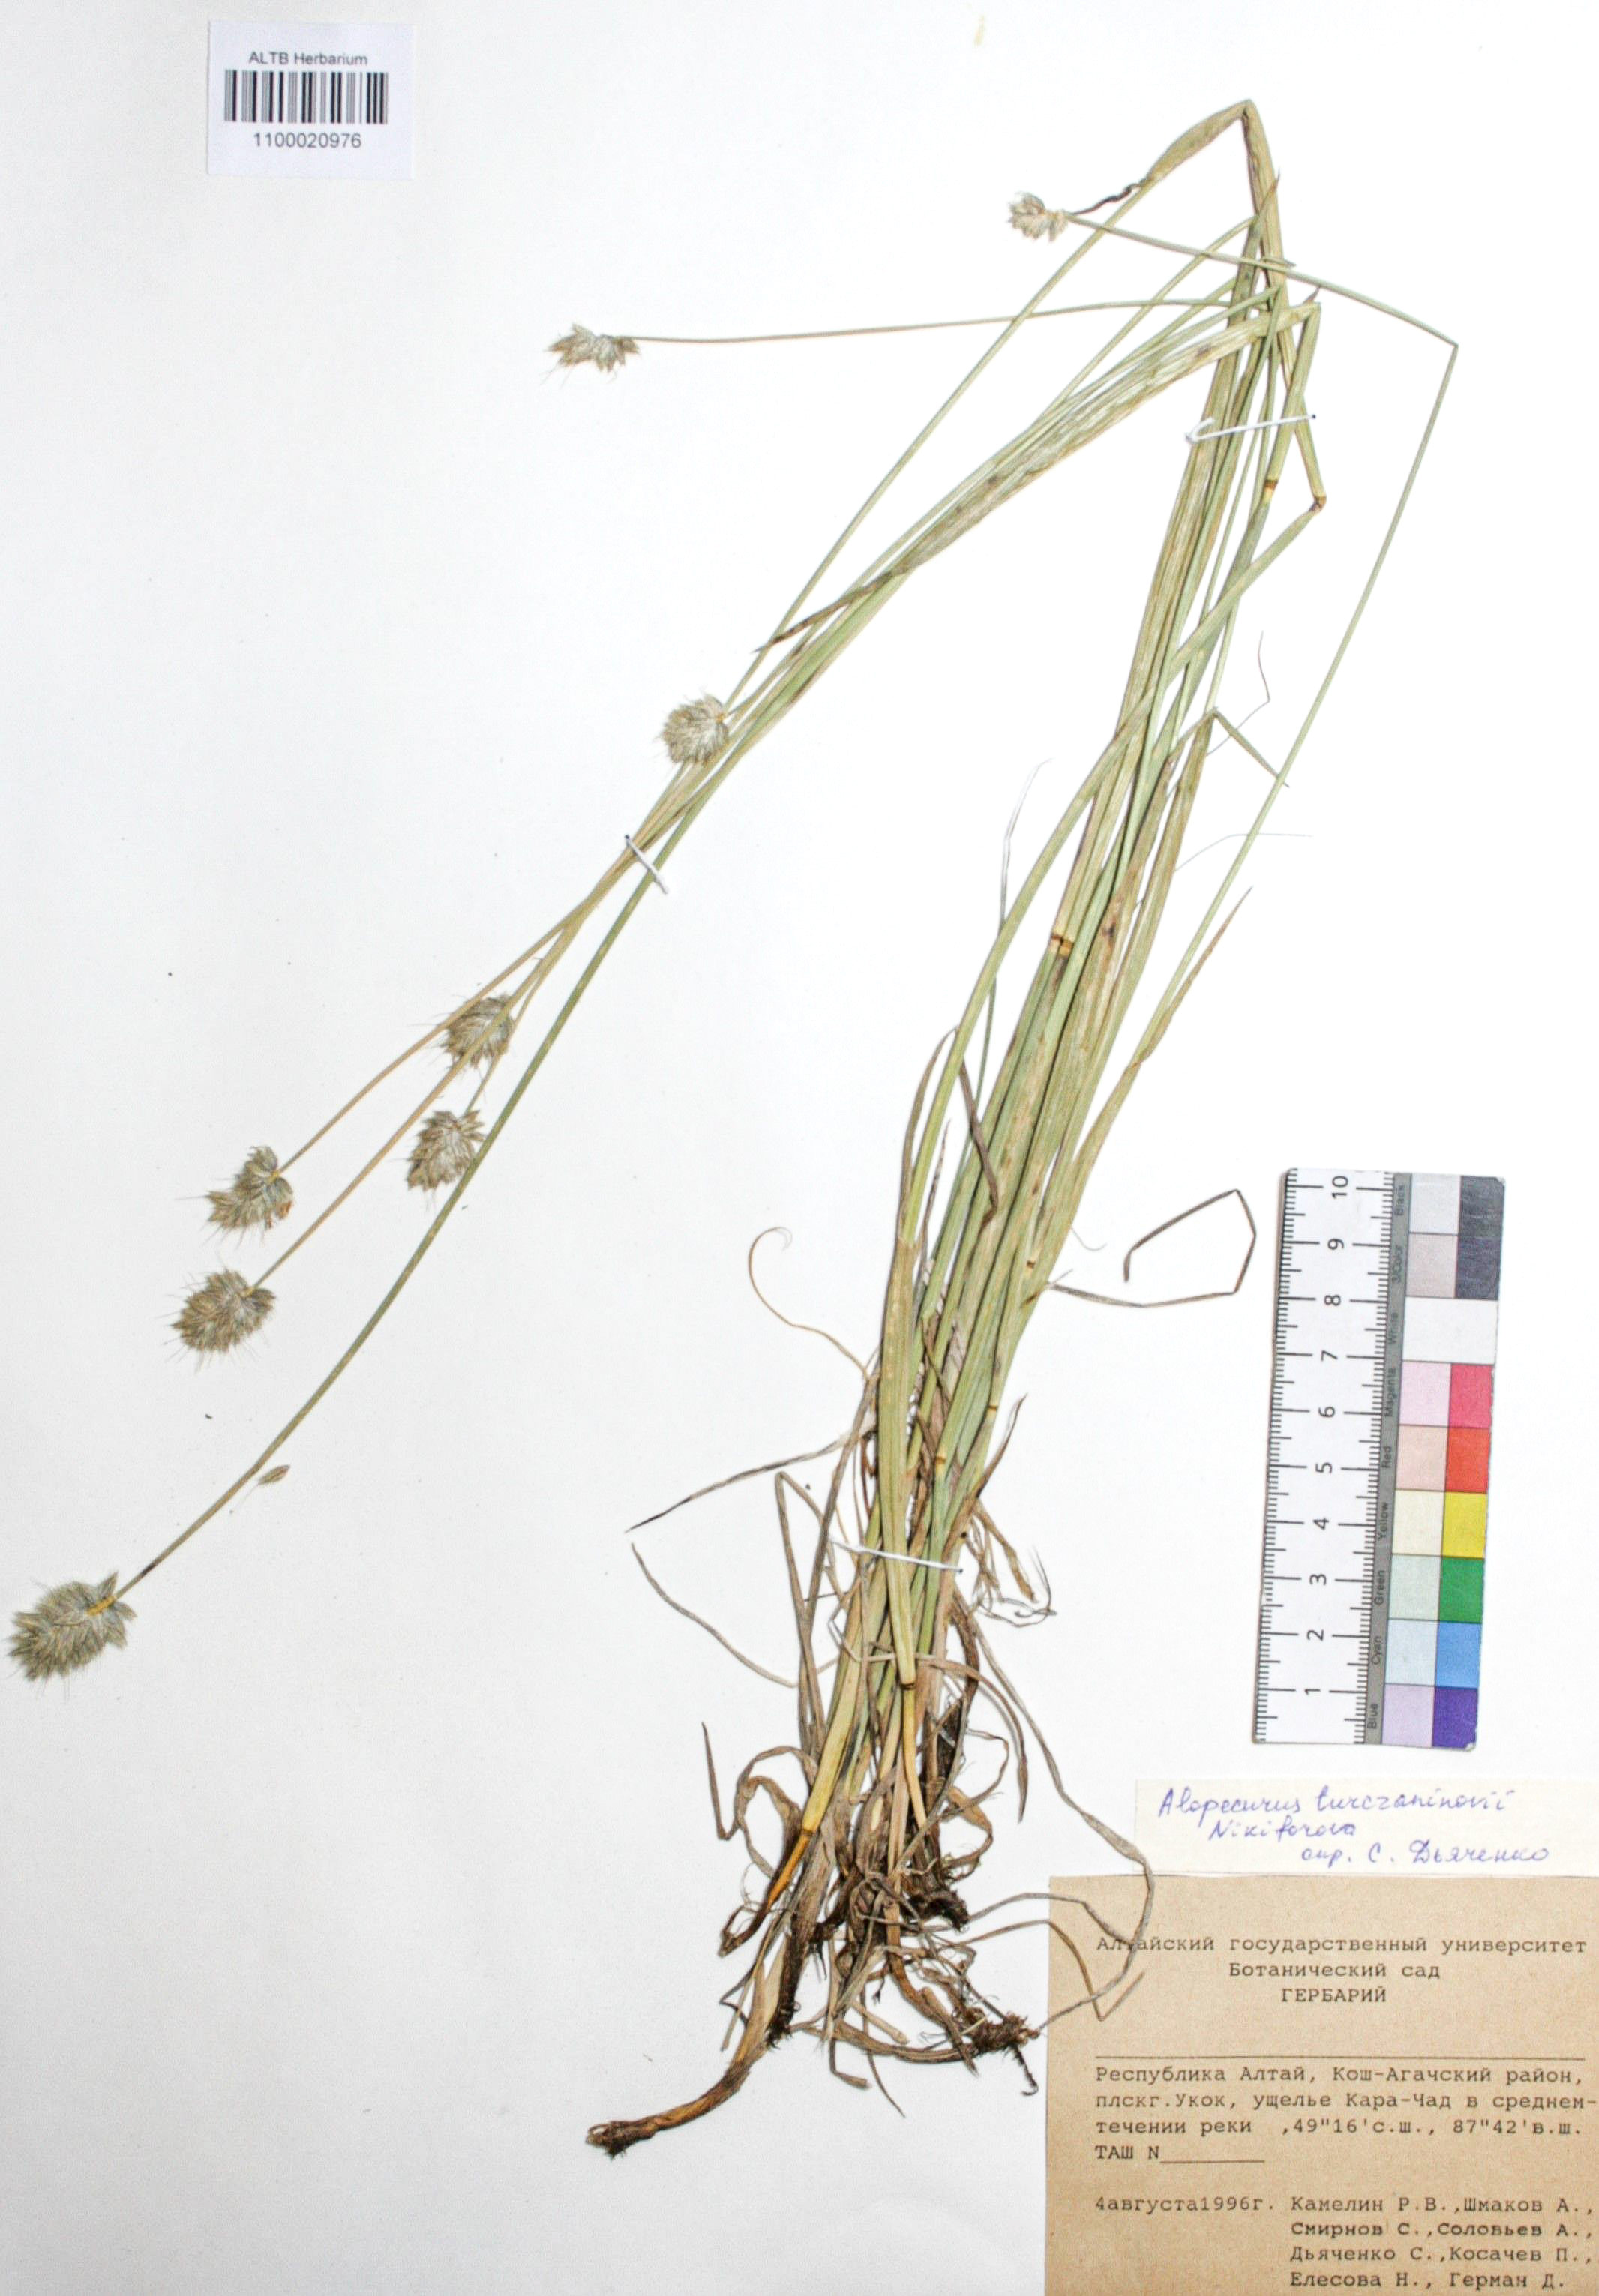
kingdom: Plantae
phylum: Tracheophyta
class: Liliopsida
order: Poales
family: Poaceae
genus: Alopecurus
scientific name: Alopecurus turczaninovii
